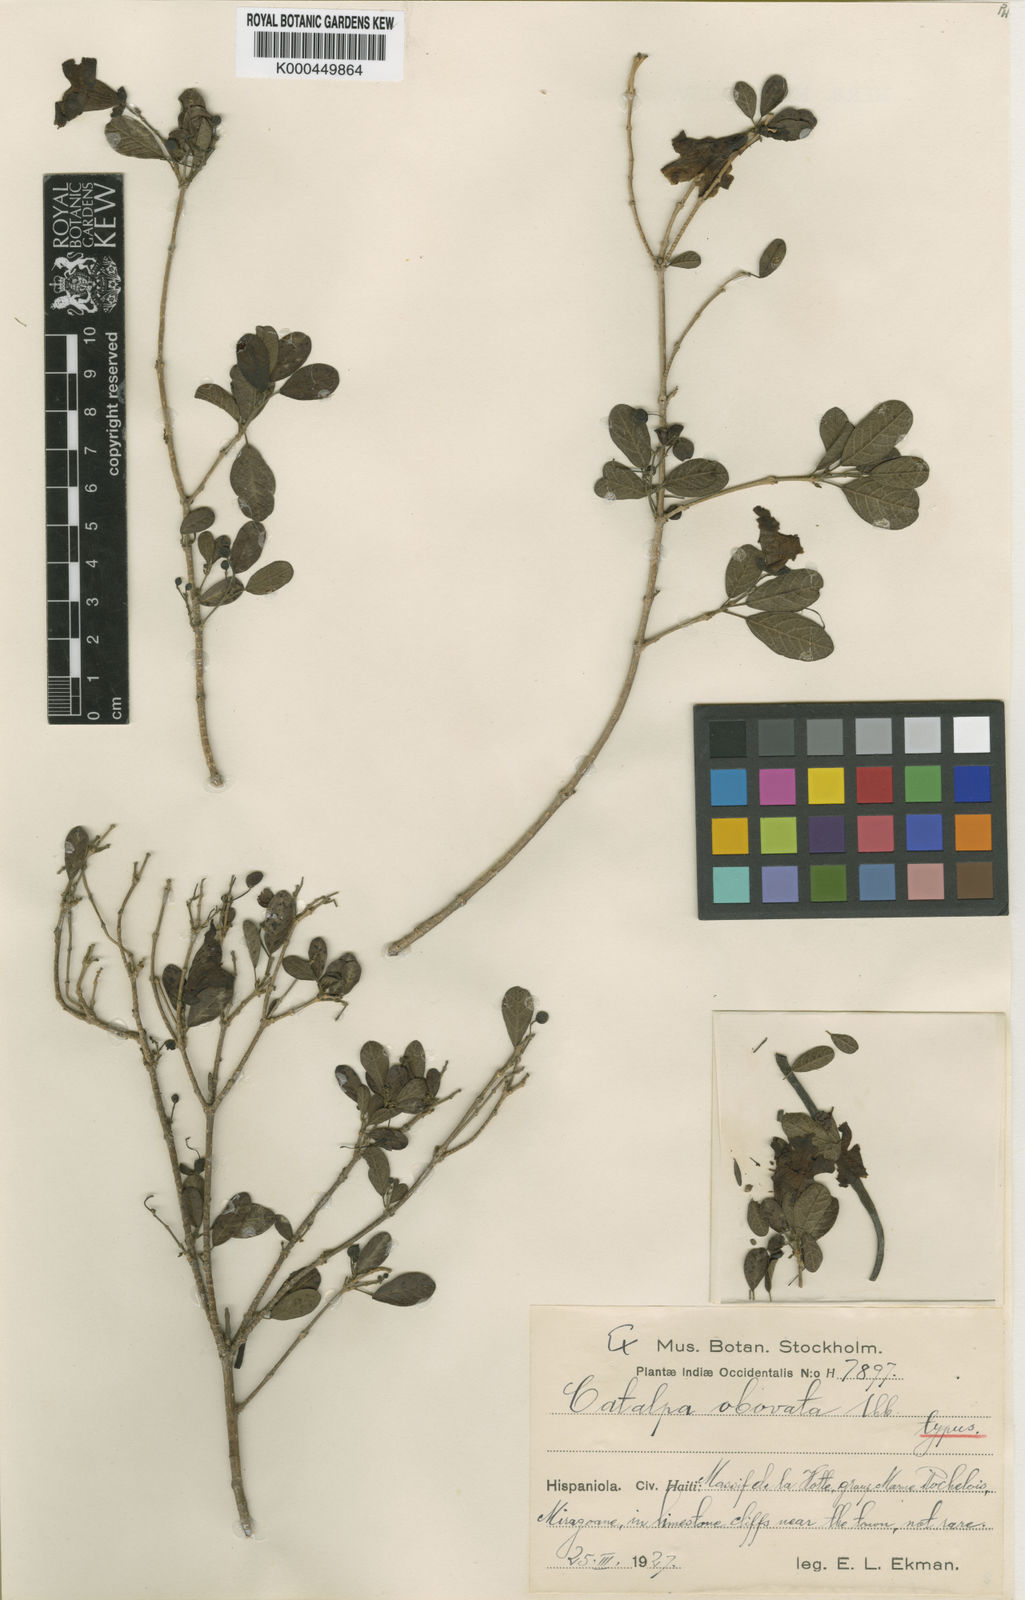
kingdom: Plantae
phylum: Tracheophyta
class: Magnoliopsida
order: Lamiales
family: Bignoniaceae
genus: Catalpa
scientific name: Catalpa macrocarpa
